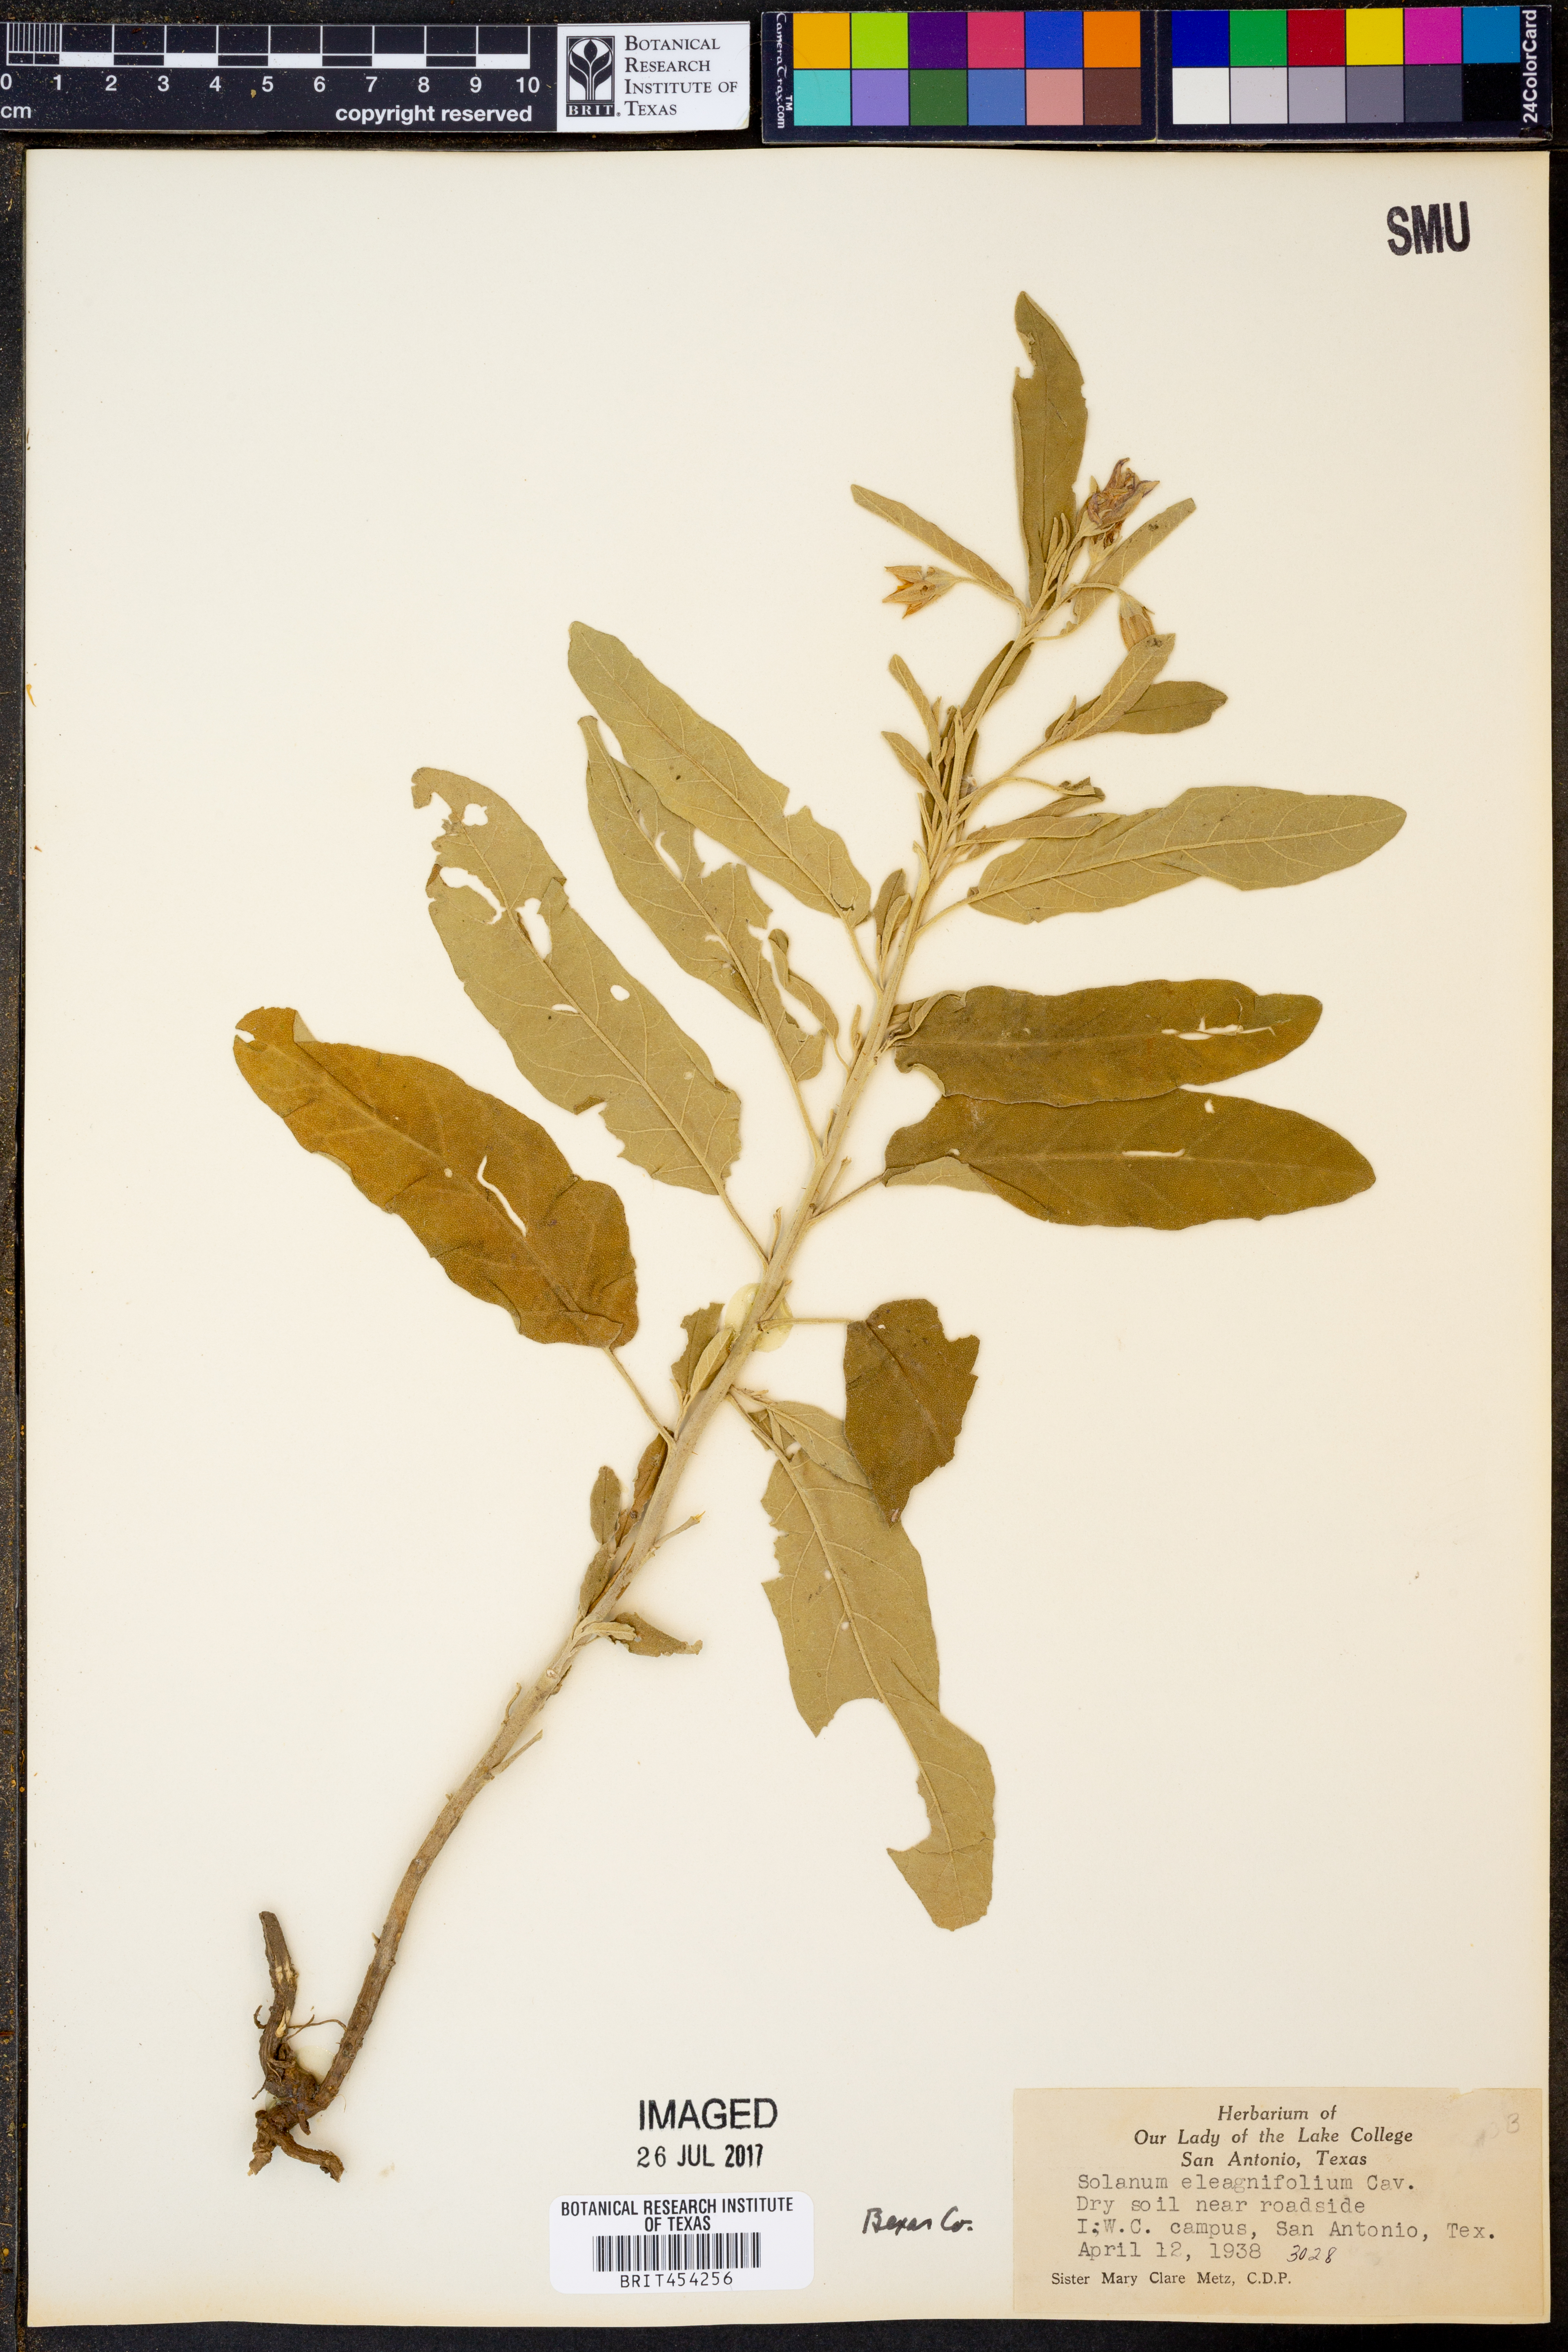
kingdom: Plantae
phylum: Tracheophyta
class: Magnoliopsida
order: Solanales
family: Solanaceae
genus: Solanum
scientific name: Solanum elaeagnifolium
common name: Silverleaf nightshade
